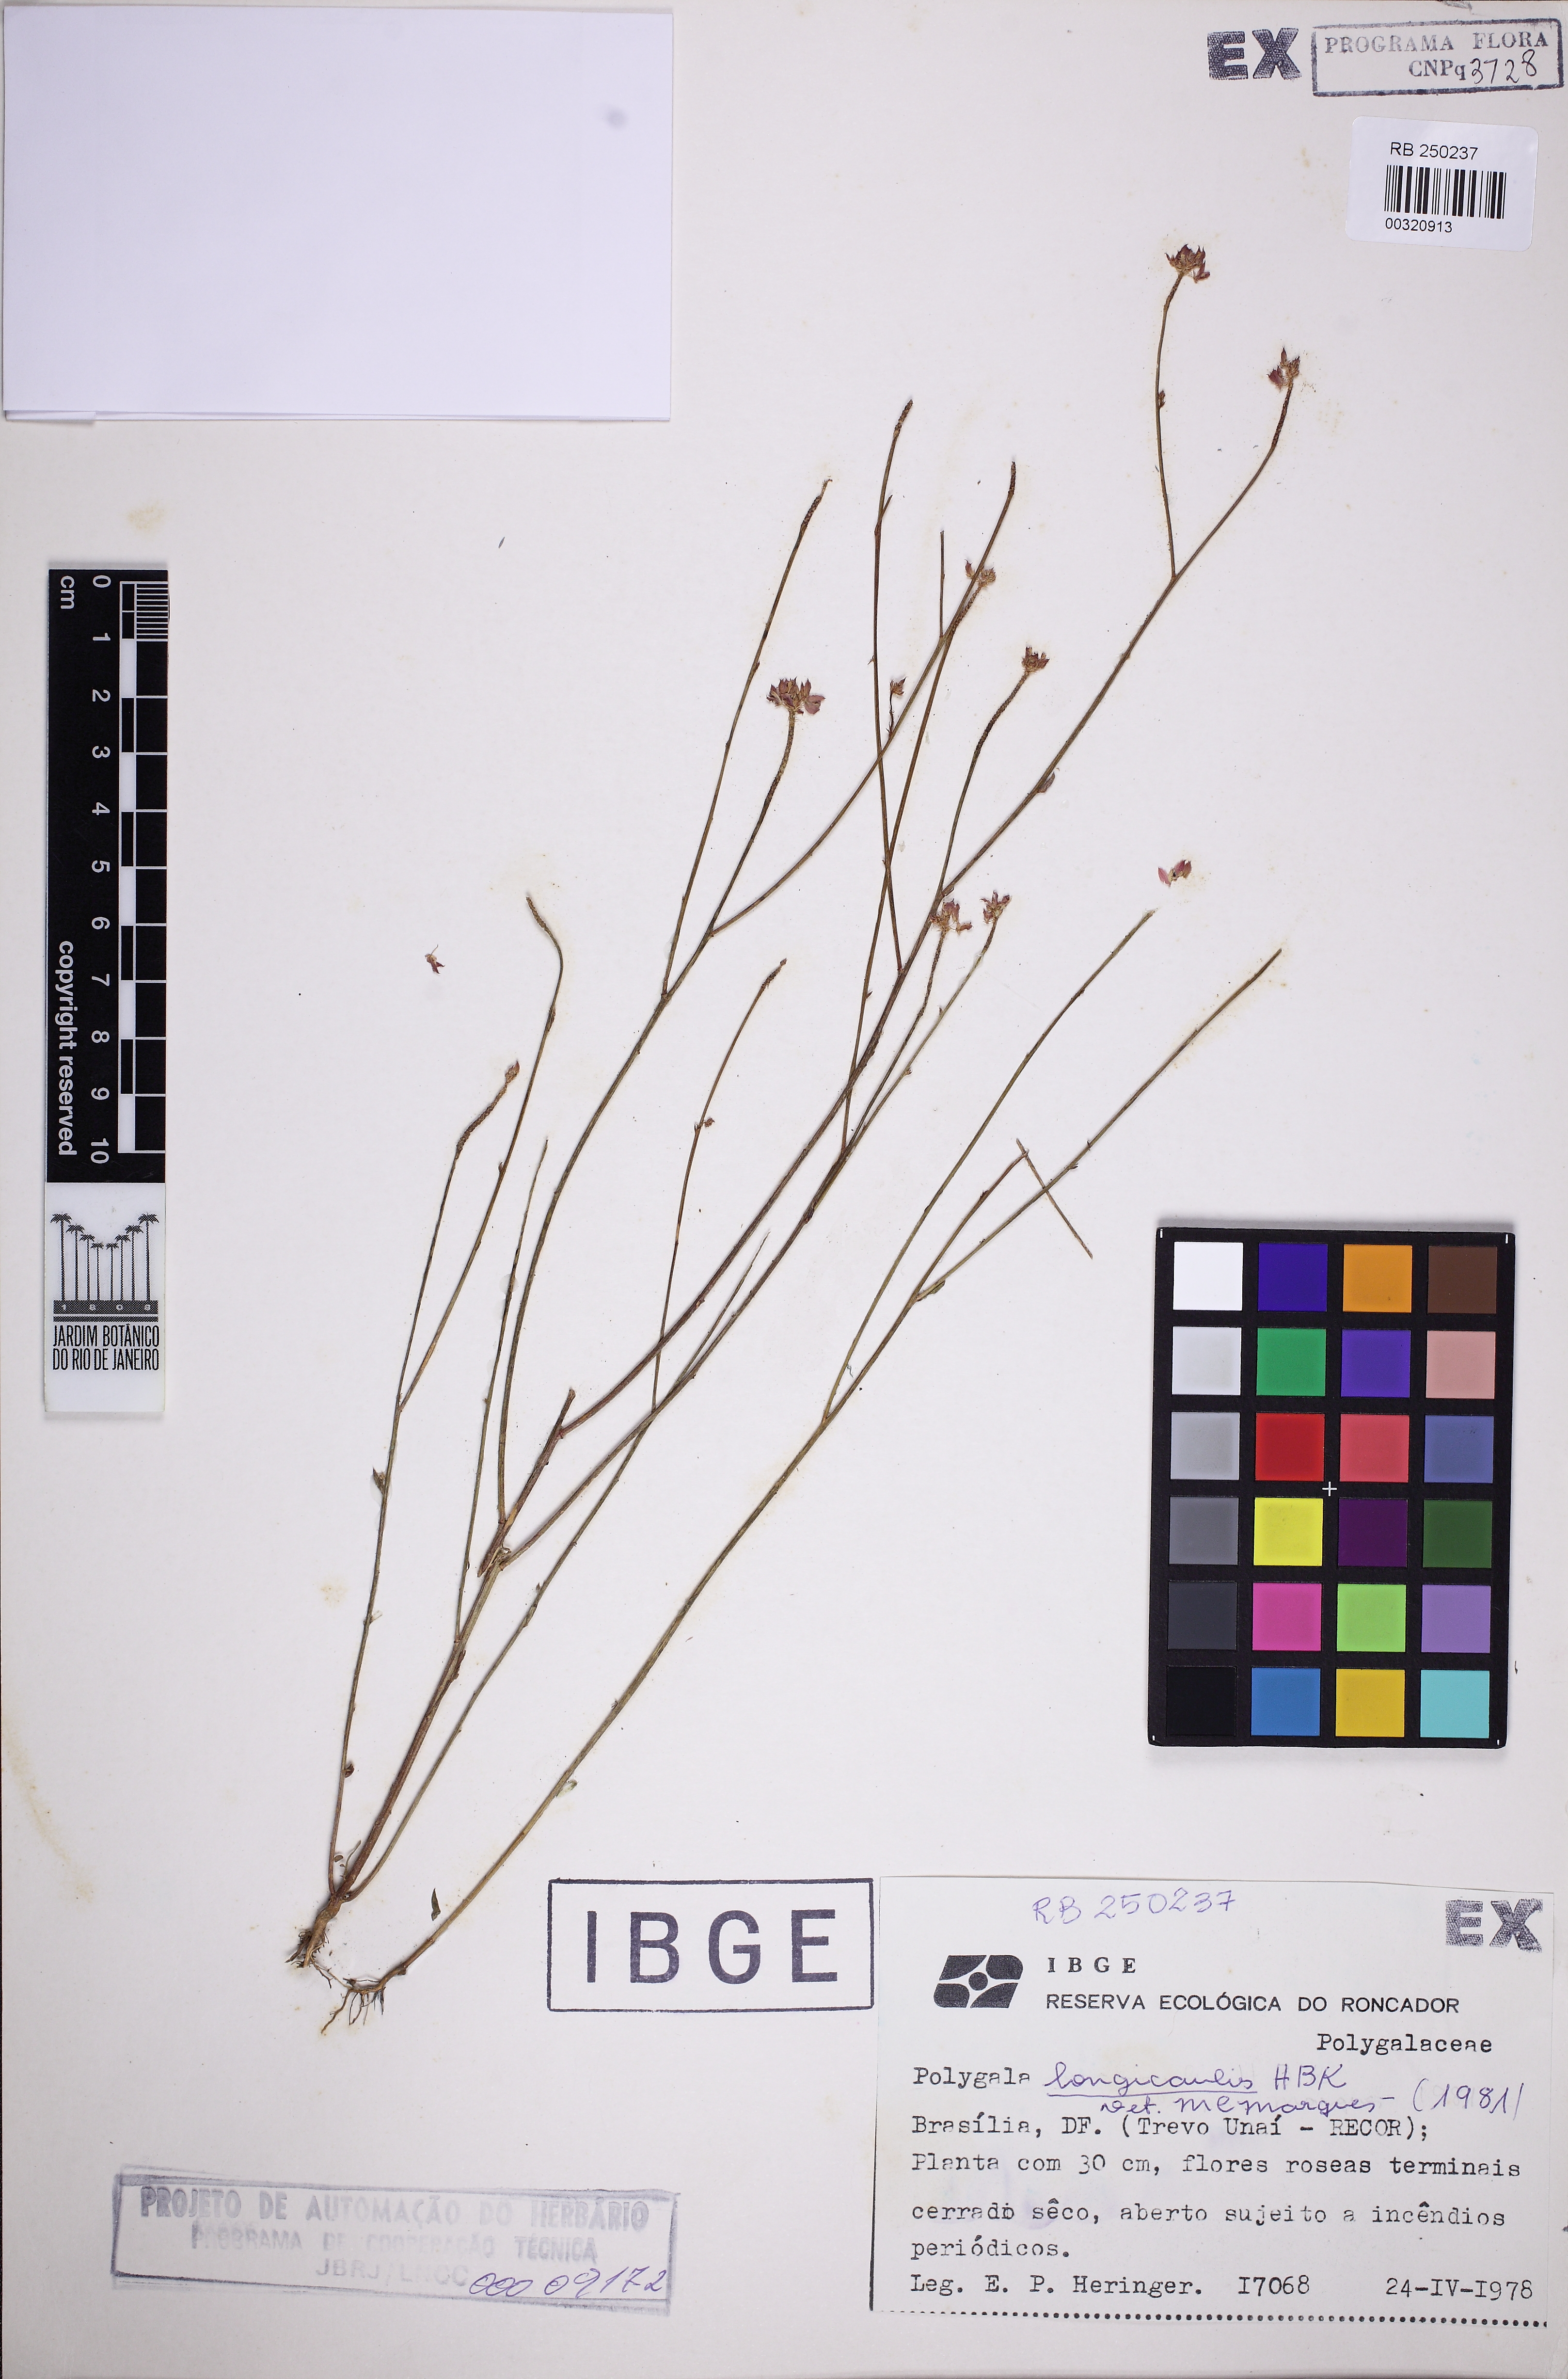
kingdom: Plantae
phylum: Tracheophyta
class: Magnoliopsida
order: Fabales
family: Polygalaceae
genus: Polygala
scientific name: Polygala longicaulis
